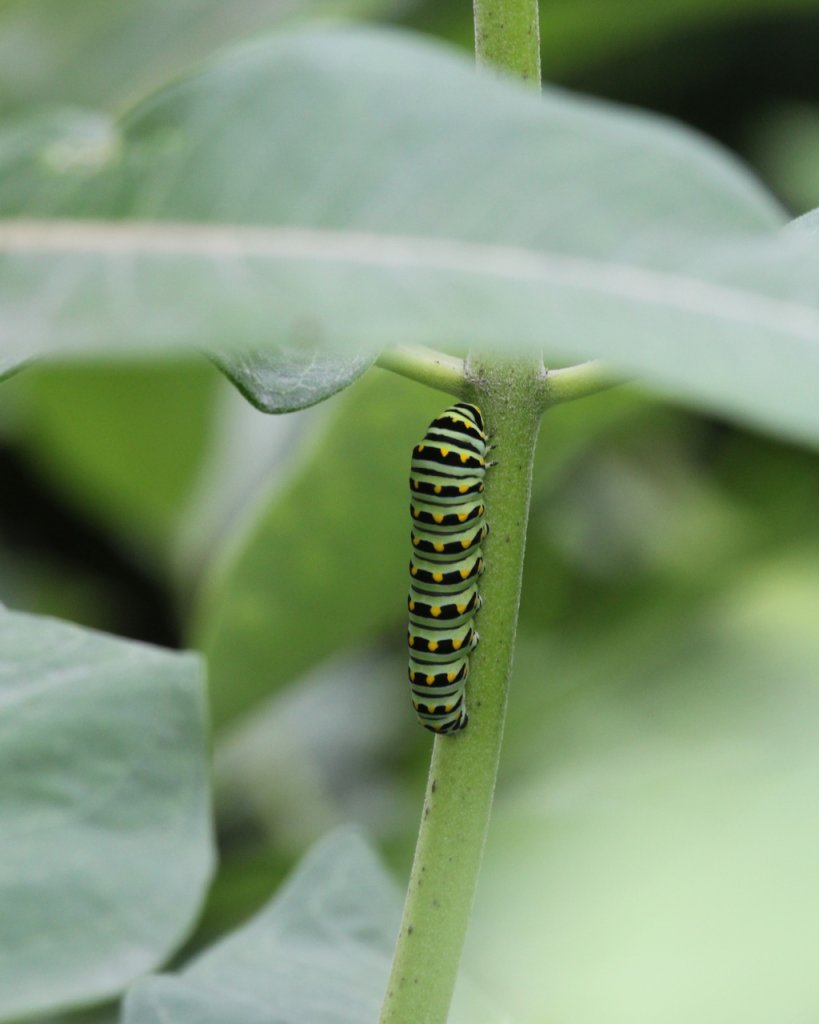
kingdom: Animalia
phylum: Arthropoda
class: Insecta
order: Lepidoptera
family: Nymphalidae
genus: Danaus
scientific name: Danaus plexippus
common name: Monarch
